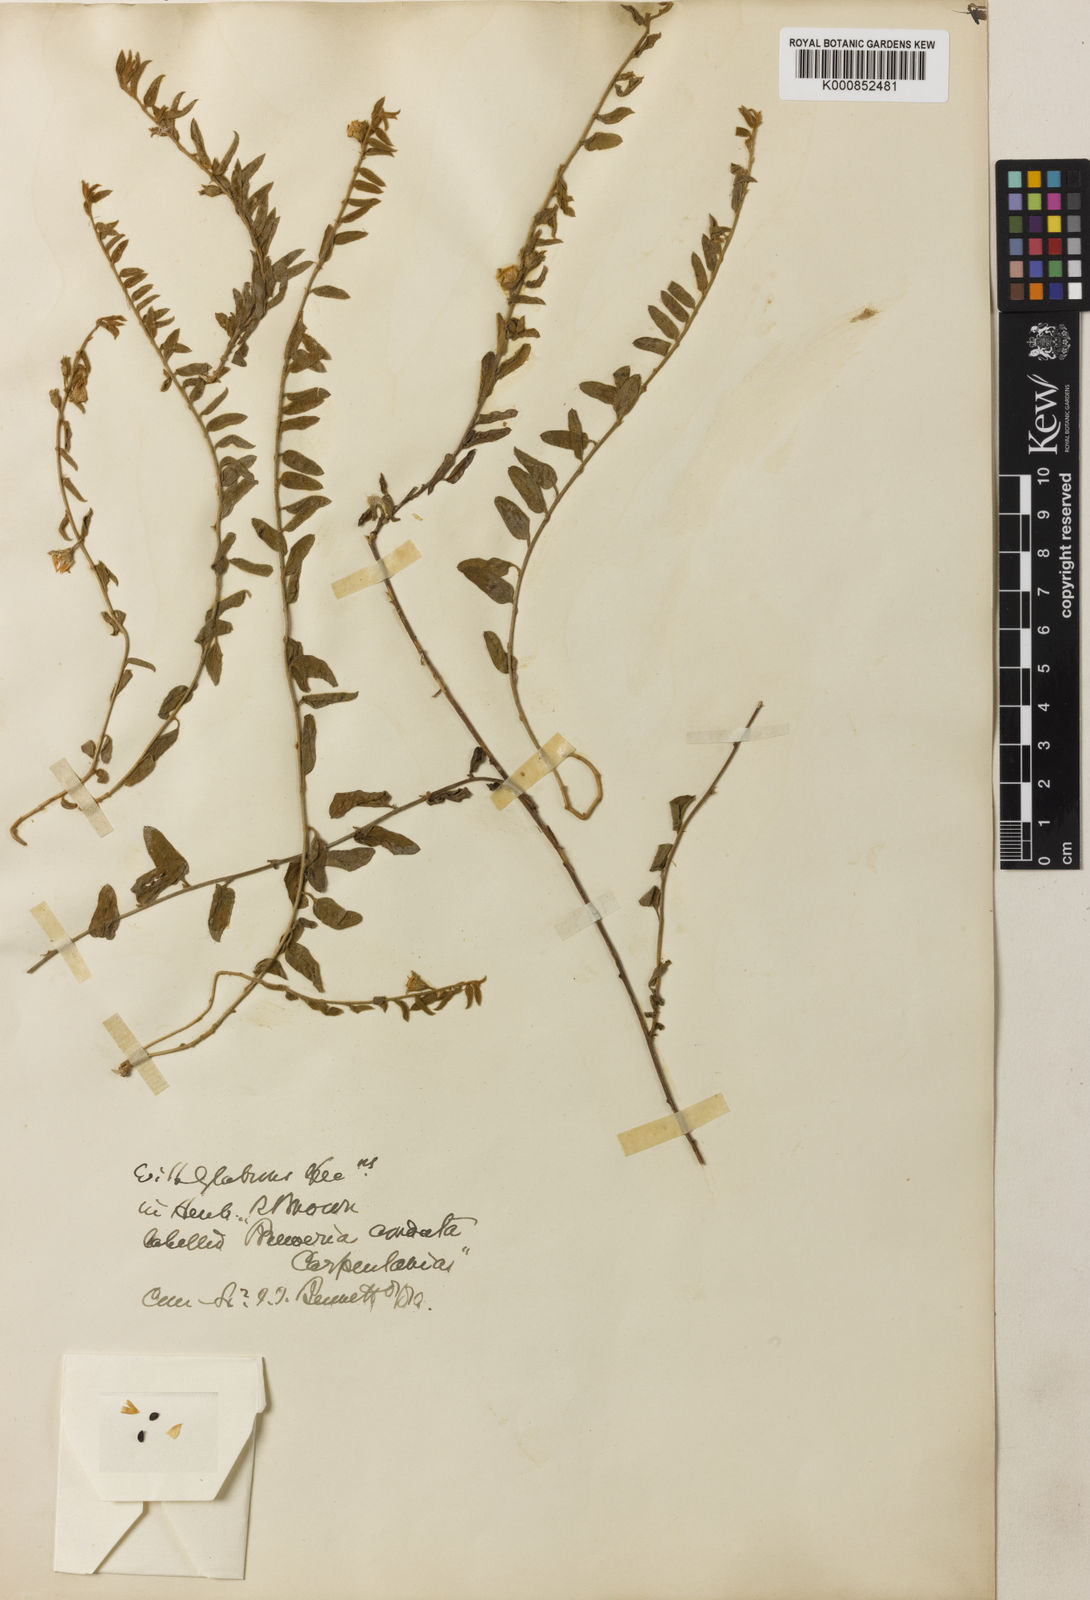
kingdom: Plantae
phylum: Tracheophyta
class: Magnoliopsida
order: Solanales
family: Convolvulaceae
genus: Bonamia
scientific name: Bonamia media
